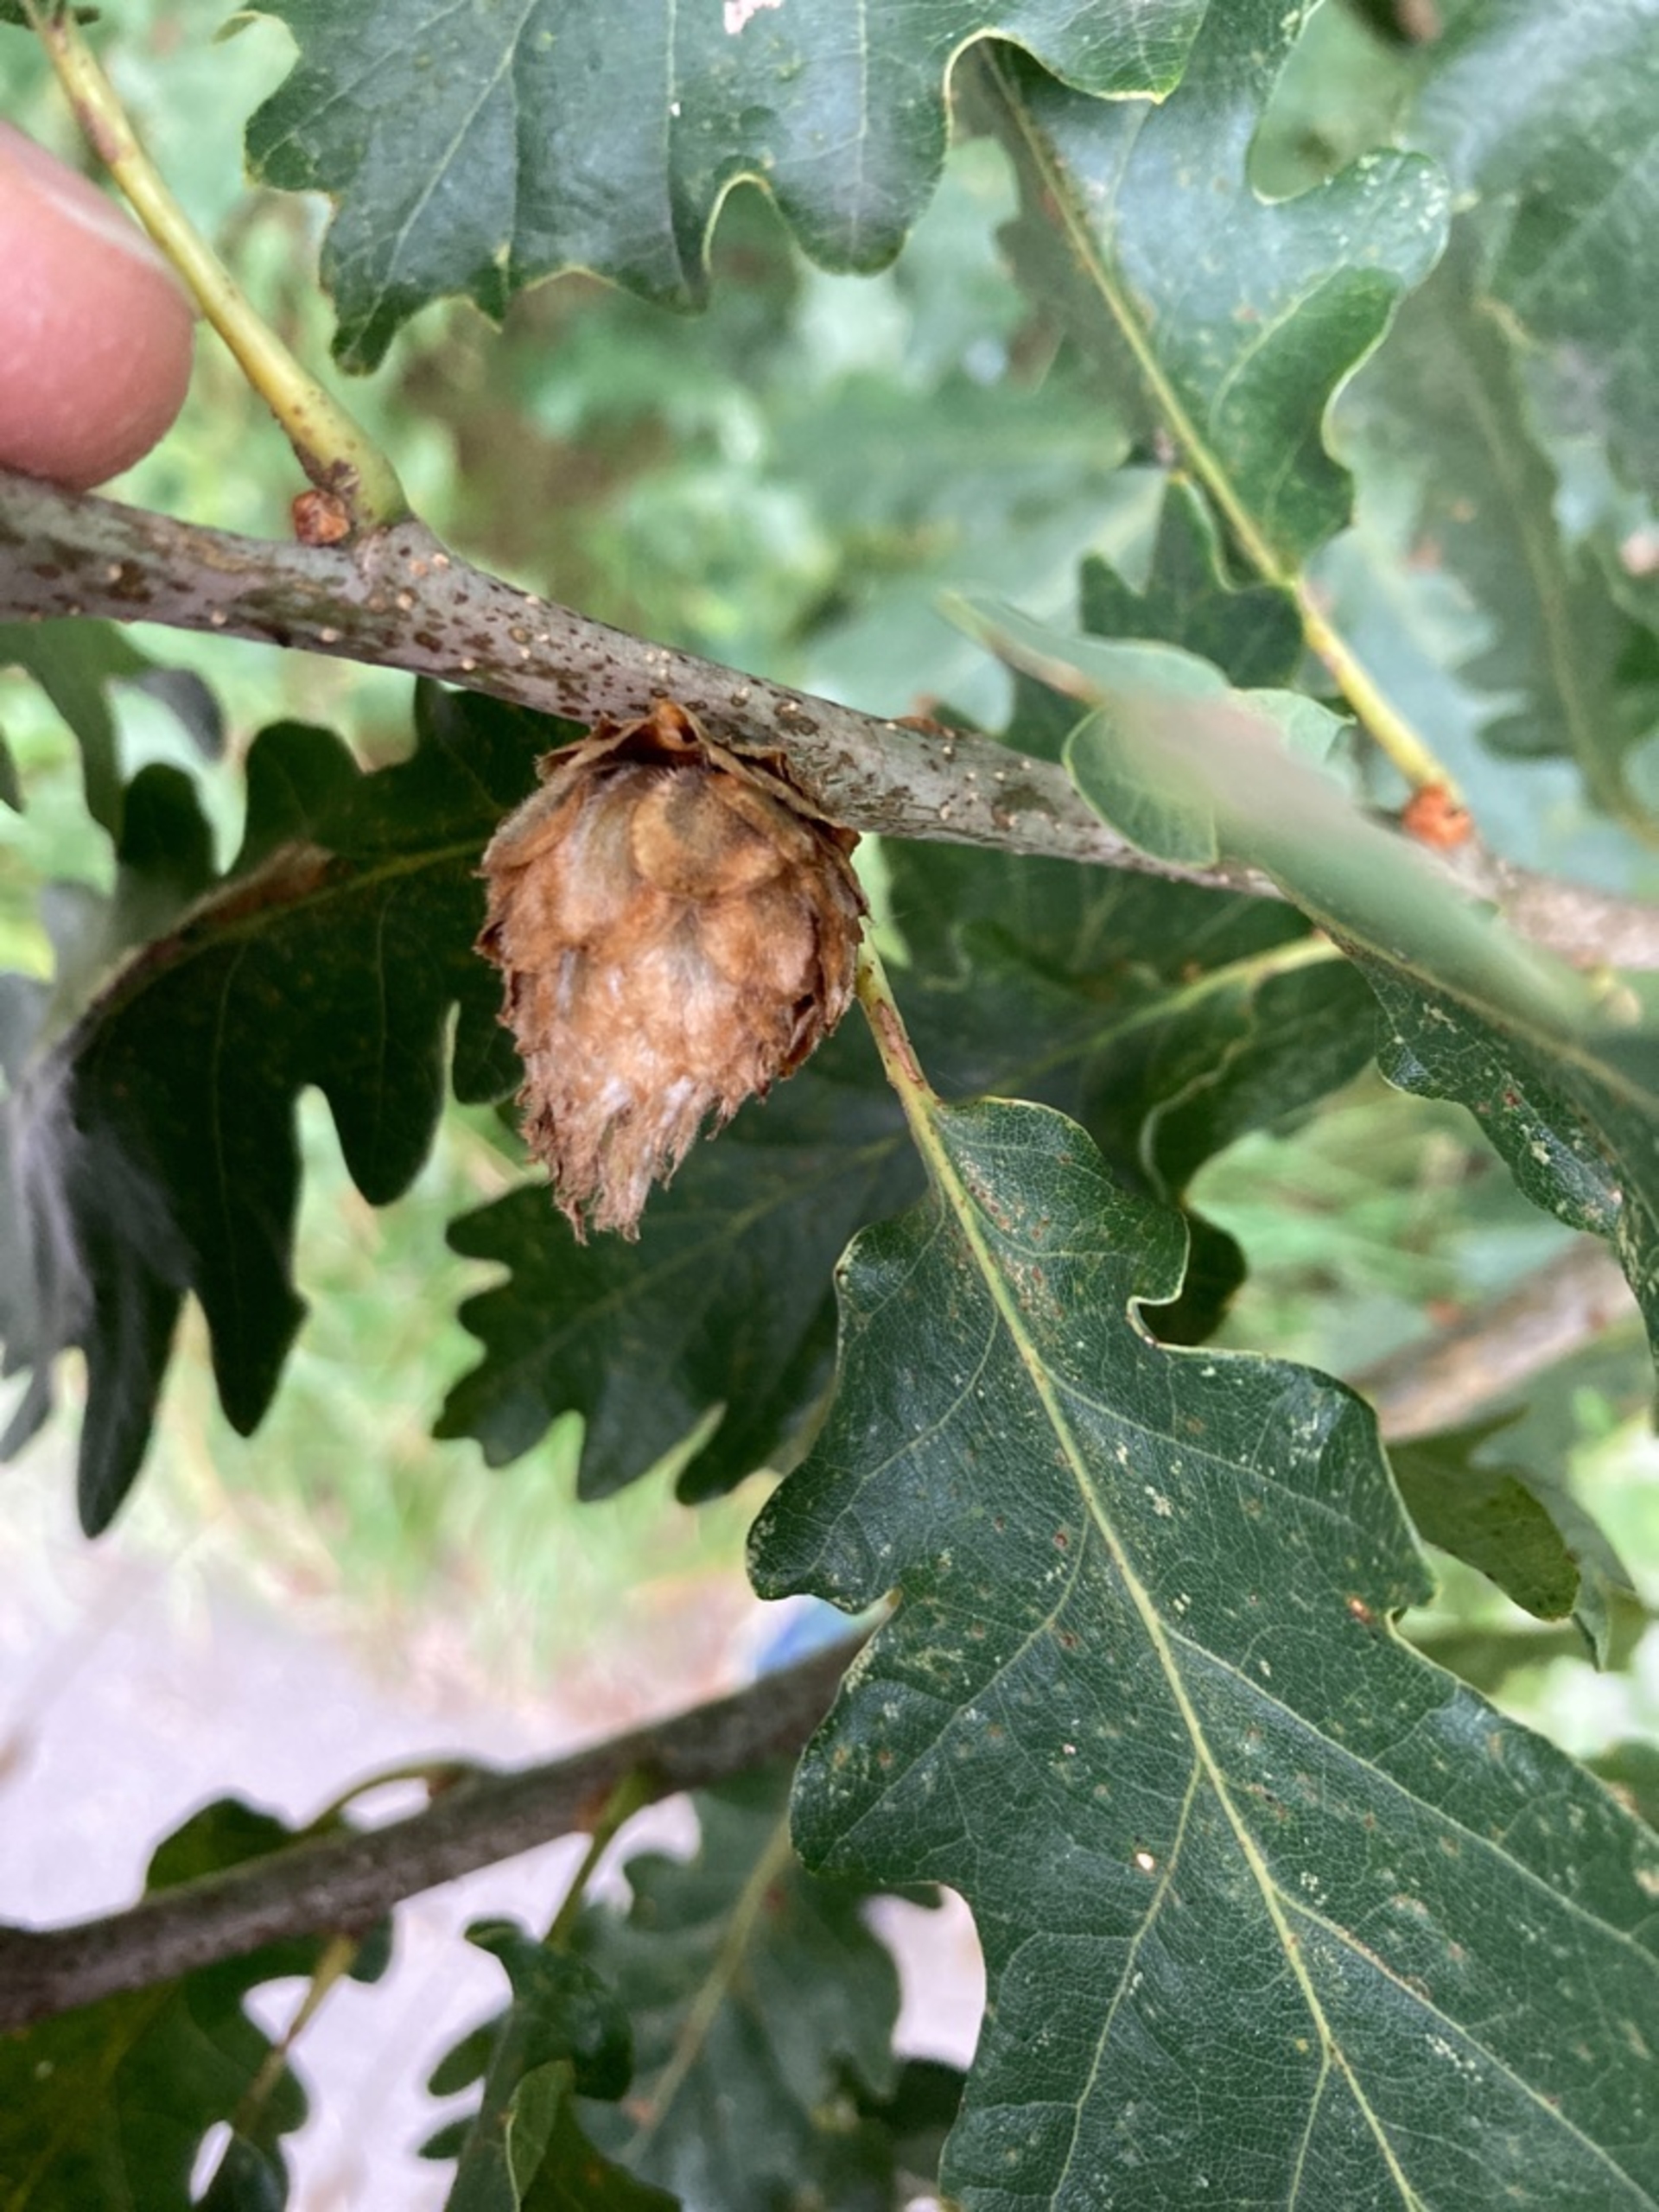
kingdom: Animalia
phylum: Arthropoda
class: Insecta
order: Hymenoptera
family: Cynipidae
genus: Andricus
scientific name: Andricus foecundatrix
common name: Artiskokgalhveps
